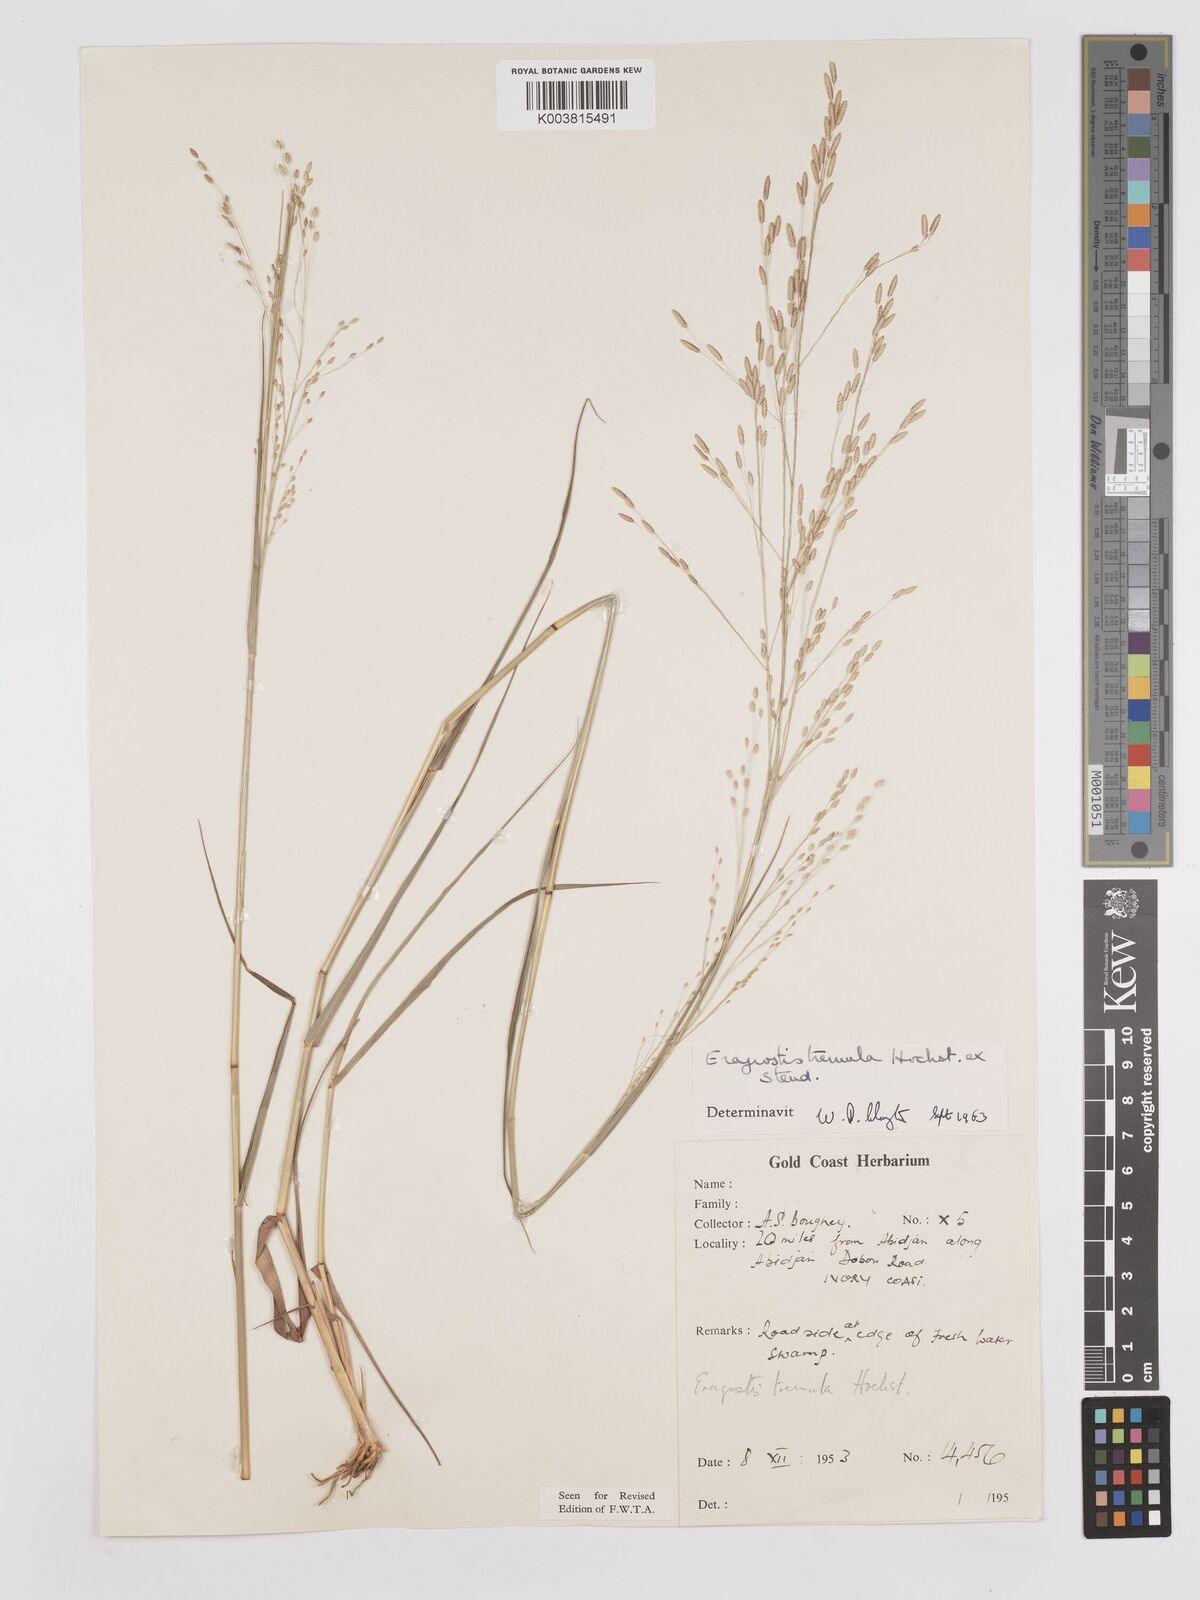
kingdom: Plantae
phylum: Tracheophyta
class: Liliopsida
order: Poales
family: Poaceae
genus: Eragrostis
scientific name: Eragrostis tremula
